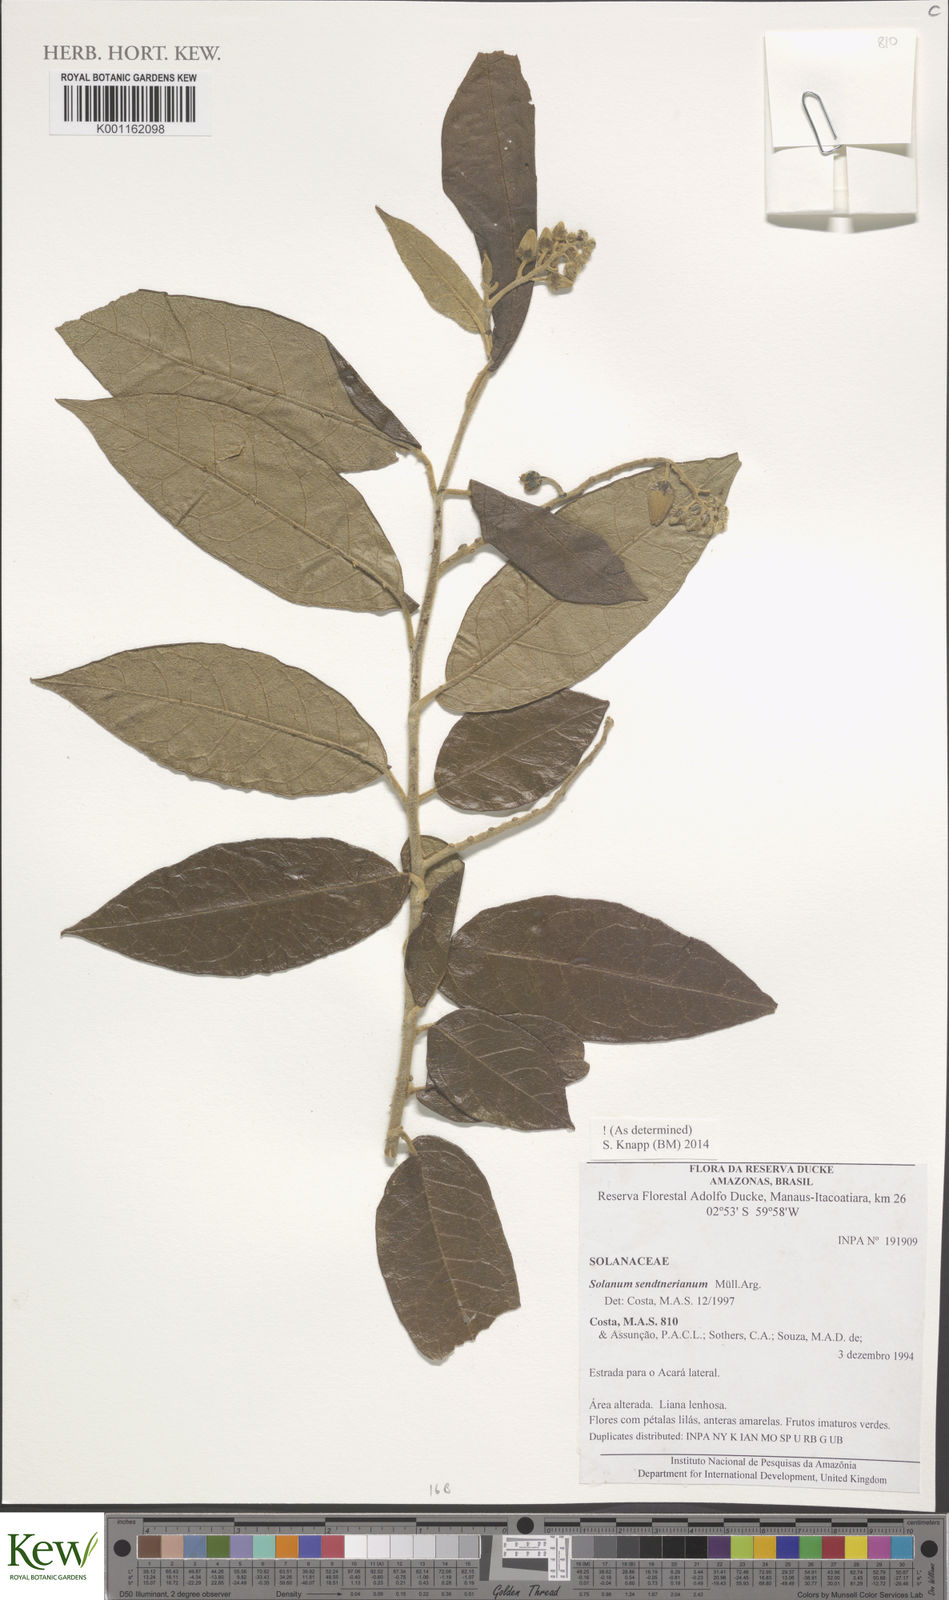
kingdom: Plantae
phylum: Tracheophyta
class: Magnoliopsida
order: Solanales
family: Solanaceae
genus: Solanum
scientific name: Solanum
